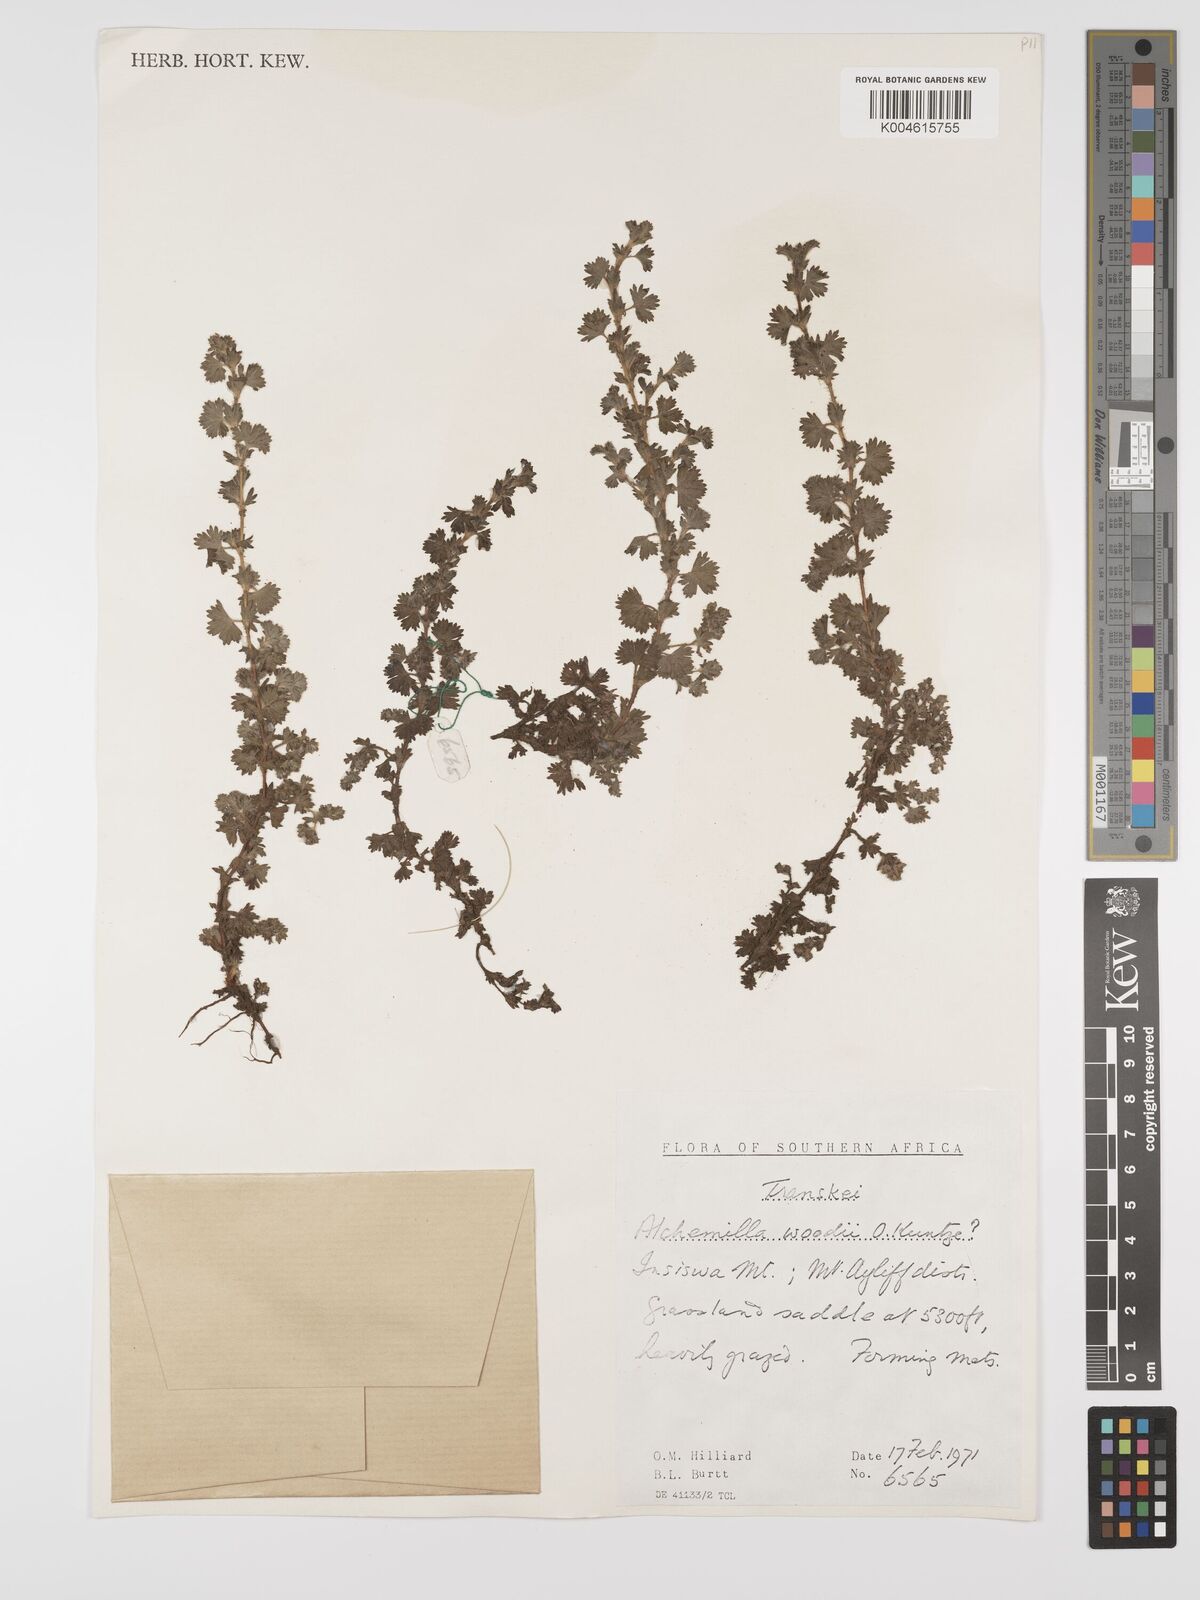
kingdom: Plantae
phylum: Tracheophyta
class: Magnoliopsida
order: Rosales
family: Rosaceae
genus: Alchemilla
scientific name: Alchemilla woodii
